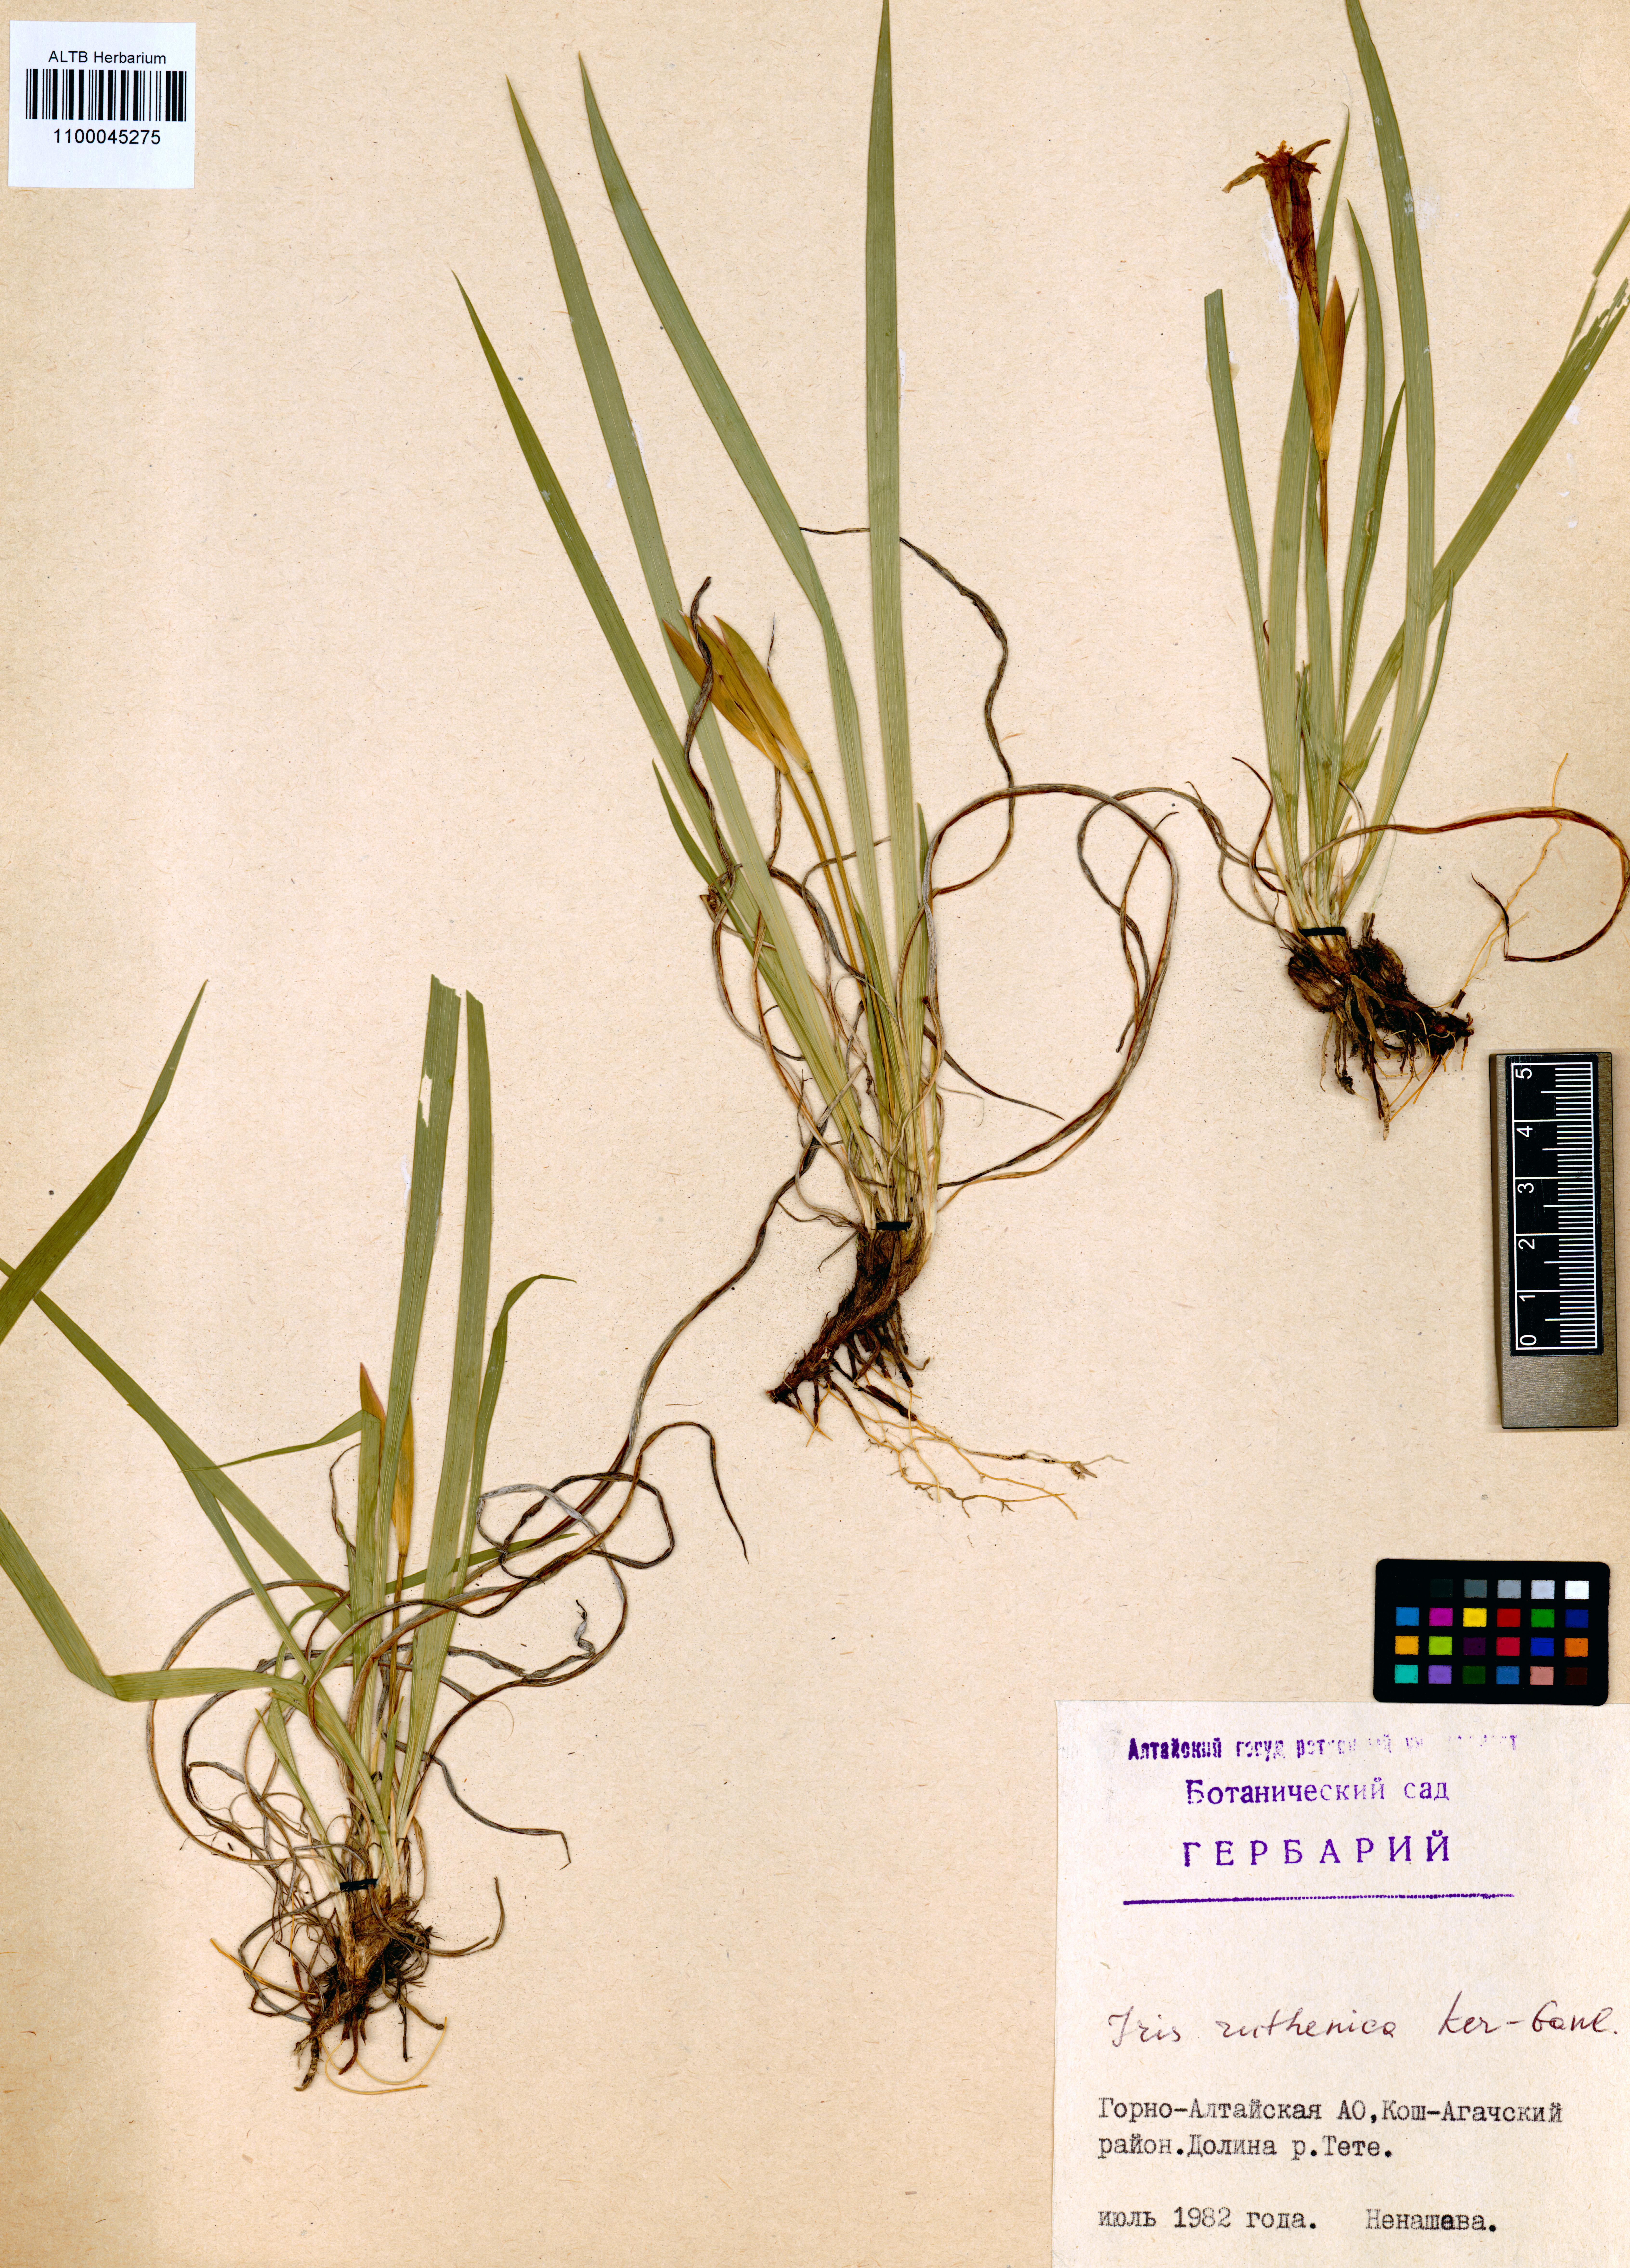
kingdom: Plantae
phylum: Tracheophyta
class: Liliopsida
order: Asparagales
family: Iridaceae
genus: Iris
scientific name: Iris ruthenica
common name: Purple-bract iris
